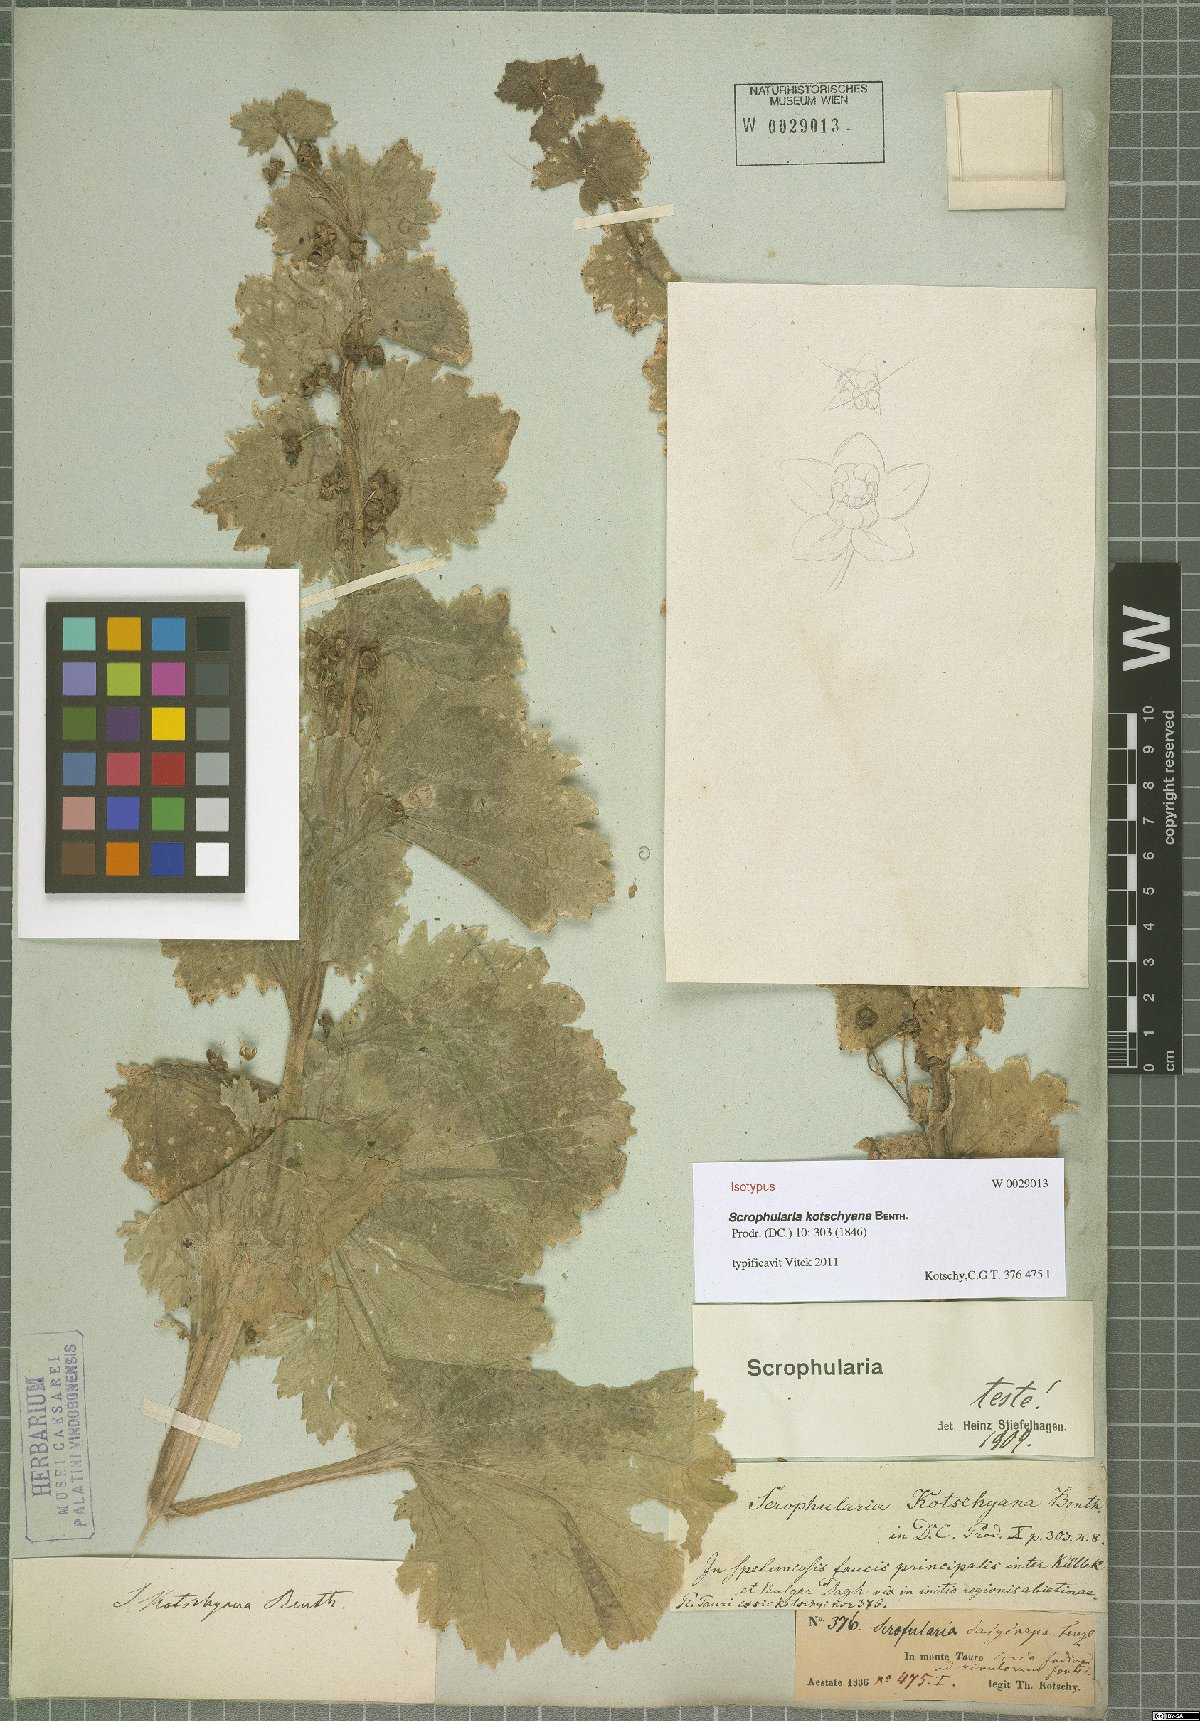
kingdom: Plantae
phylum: Tracheophyta
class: Magnoliopsida
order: Lamiales
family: Scrophulariaceae
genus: Scrophularia
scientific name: Scrophularia kotschyana
